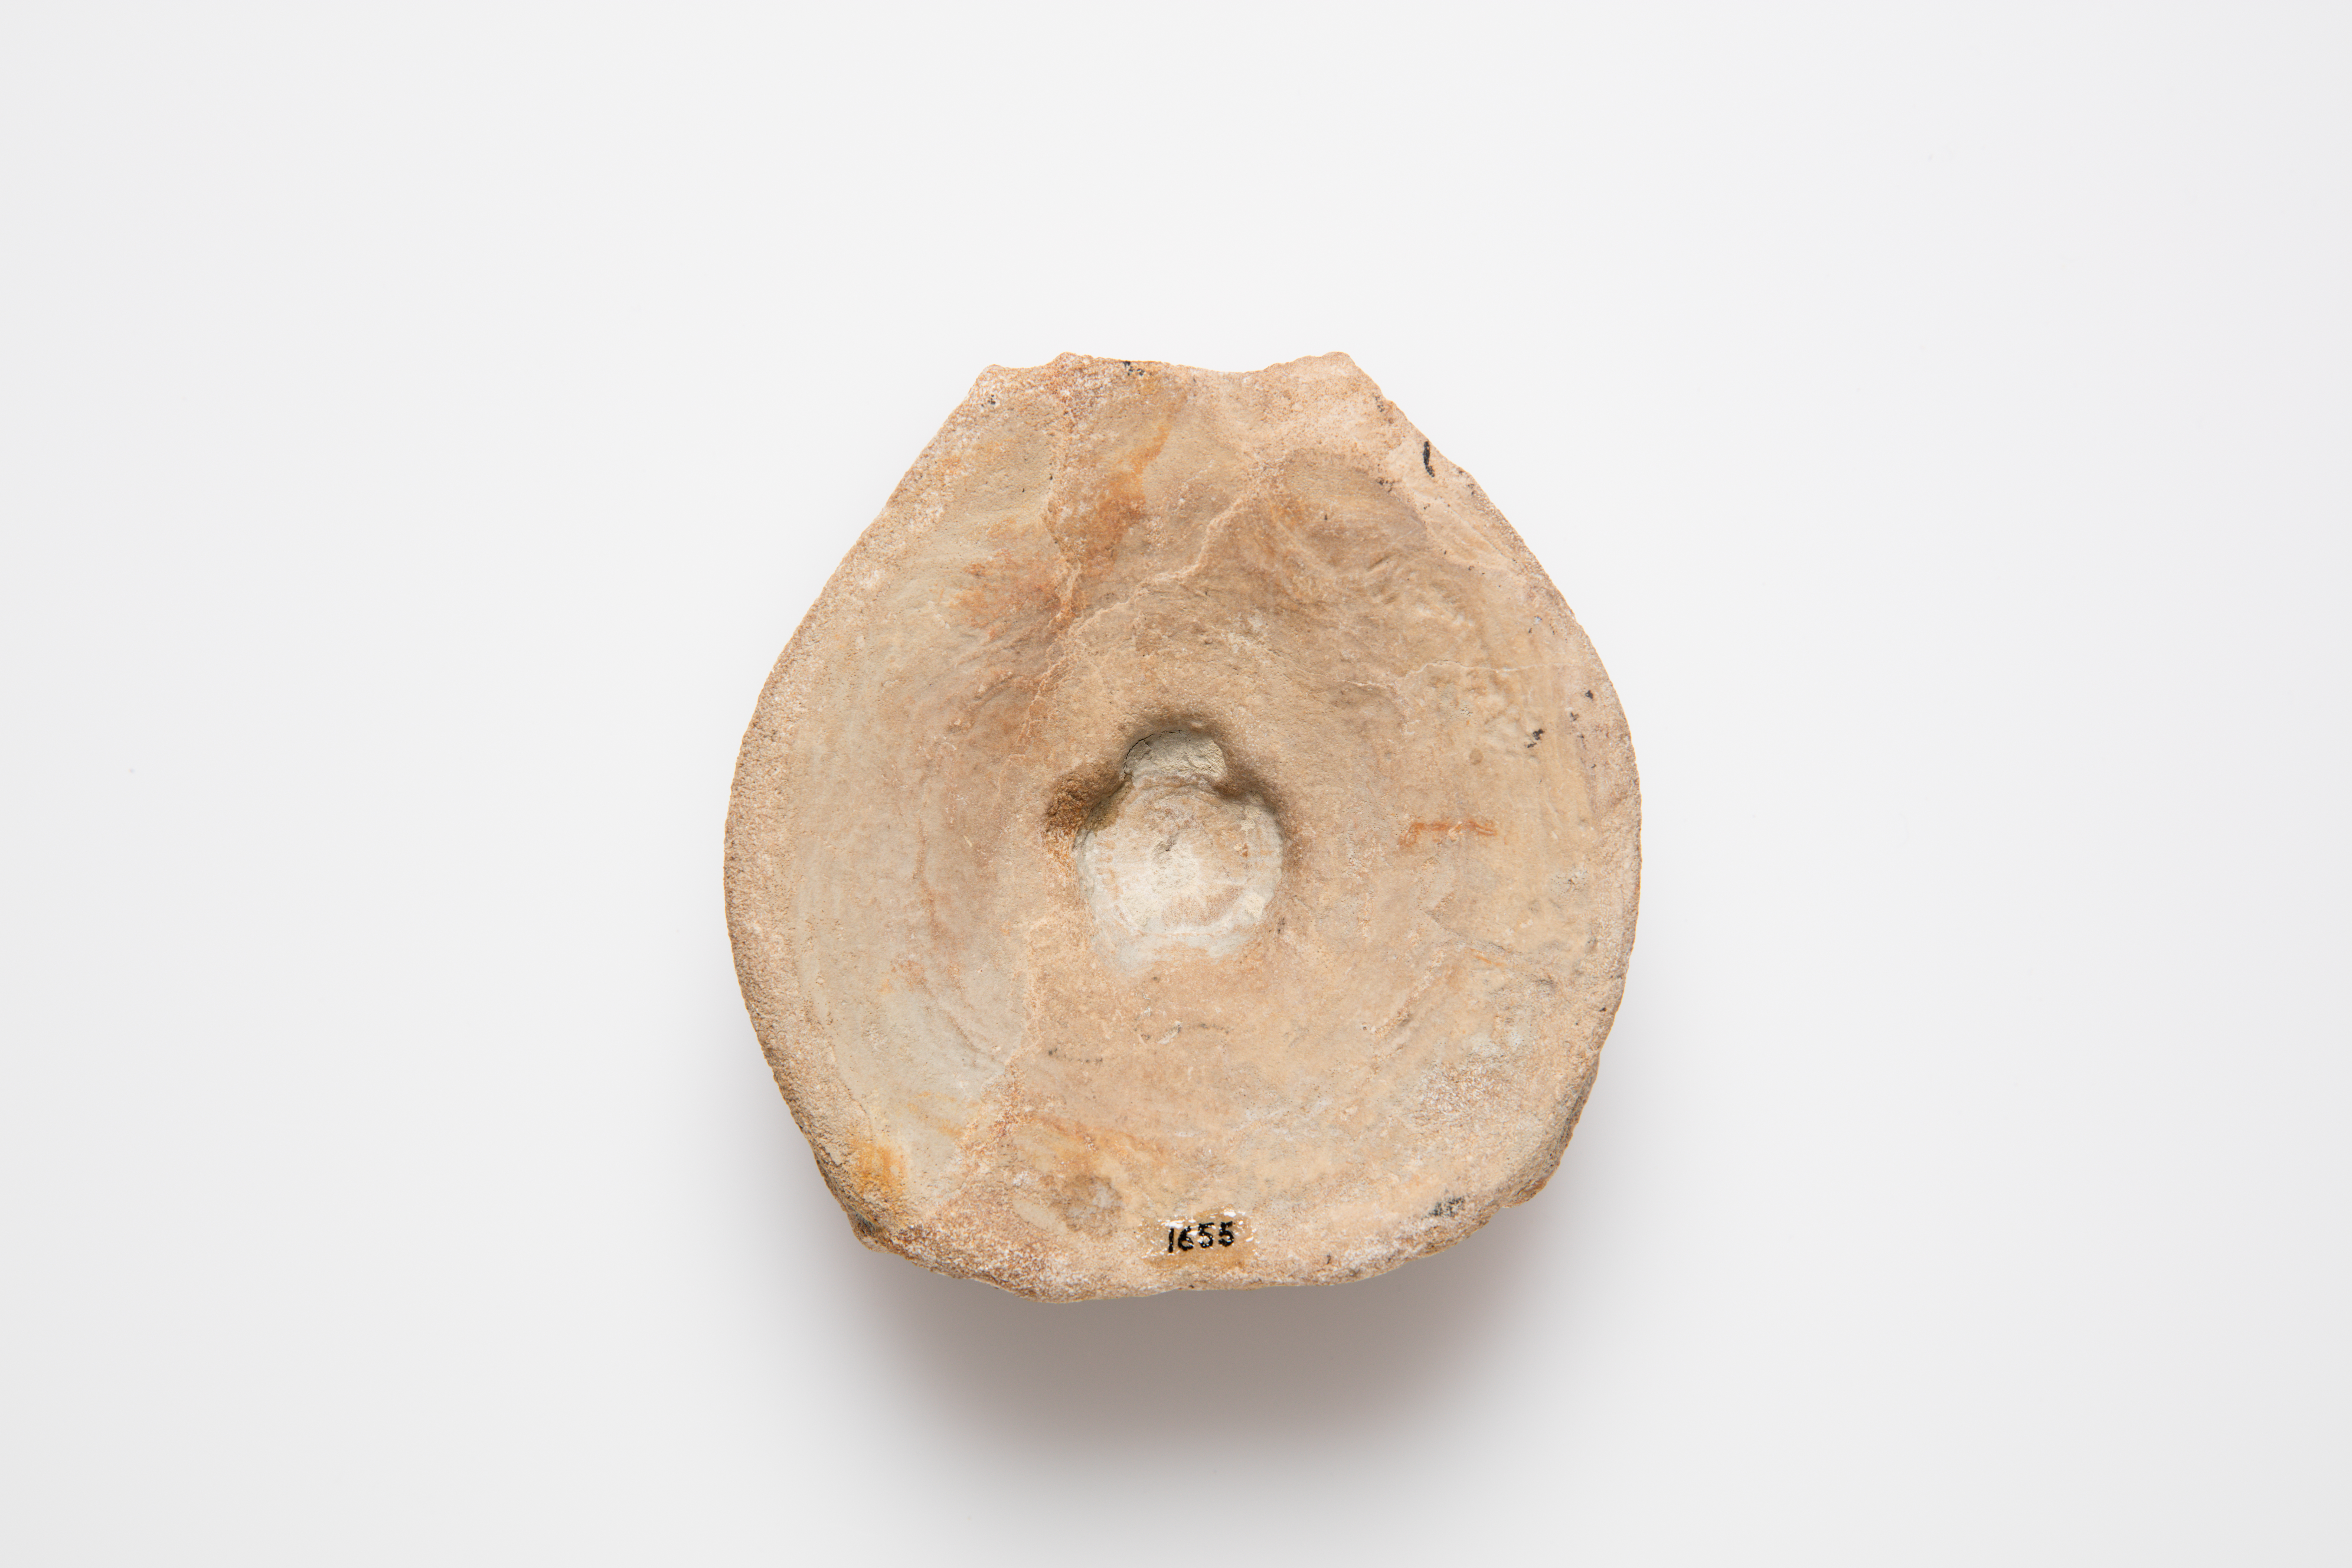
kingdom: Animalia
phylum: Chordata
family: Ichthyosauridae
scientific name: Ichthyosauridae
